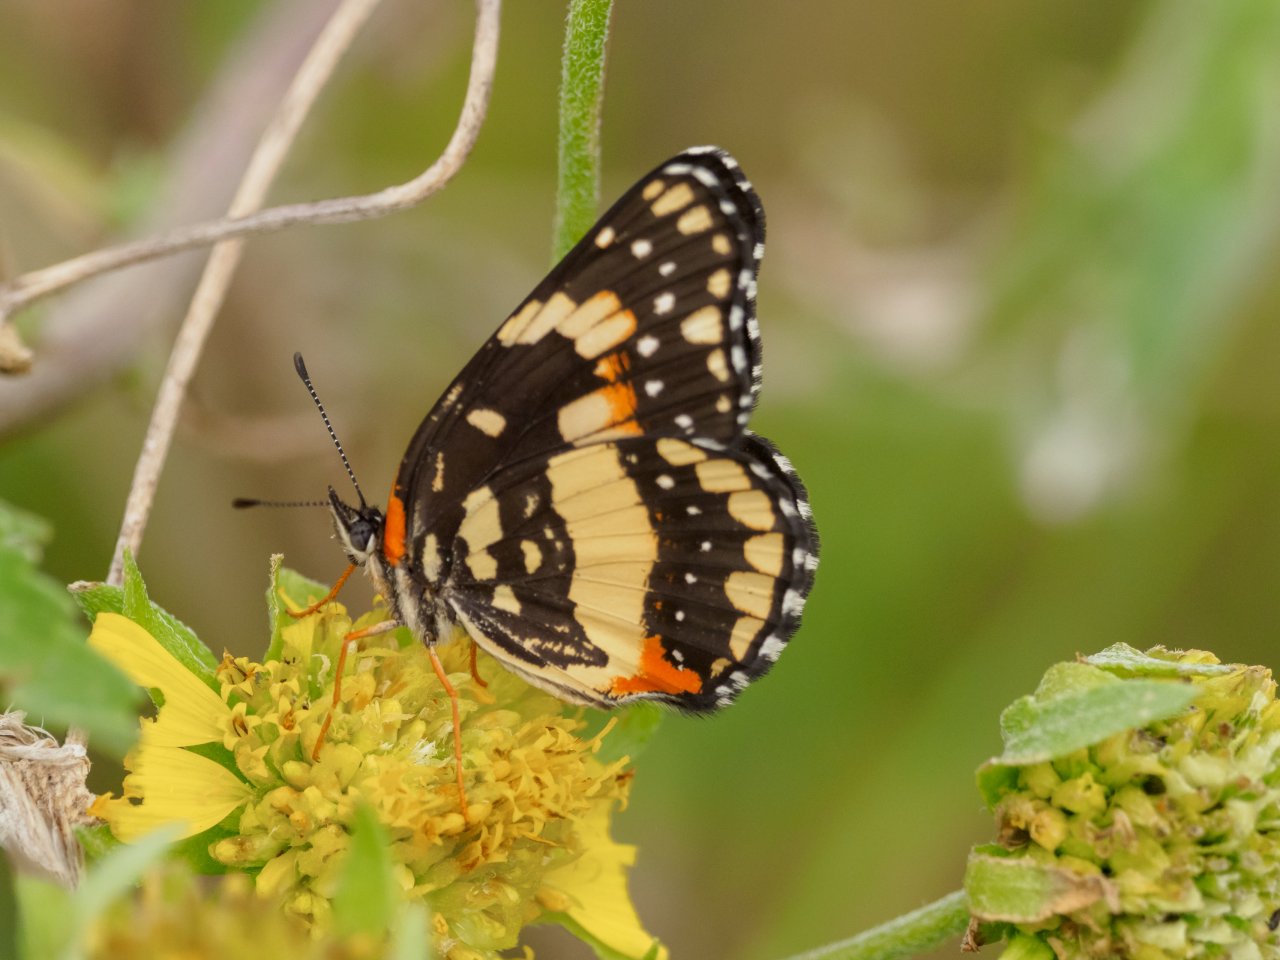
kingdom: Animalia
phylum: Arthropoda
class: Insecta
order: Lepidoptera
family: Nymphalidae
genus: Chlosyne
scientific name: Chlosyne lacinia
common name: Bordered Patch
